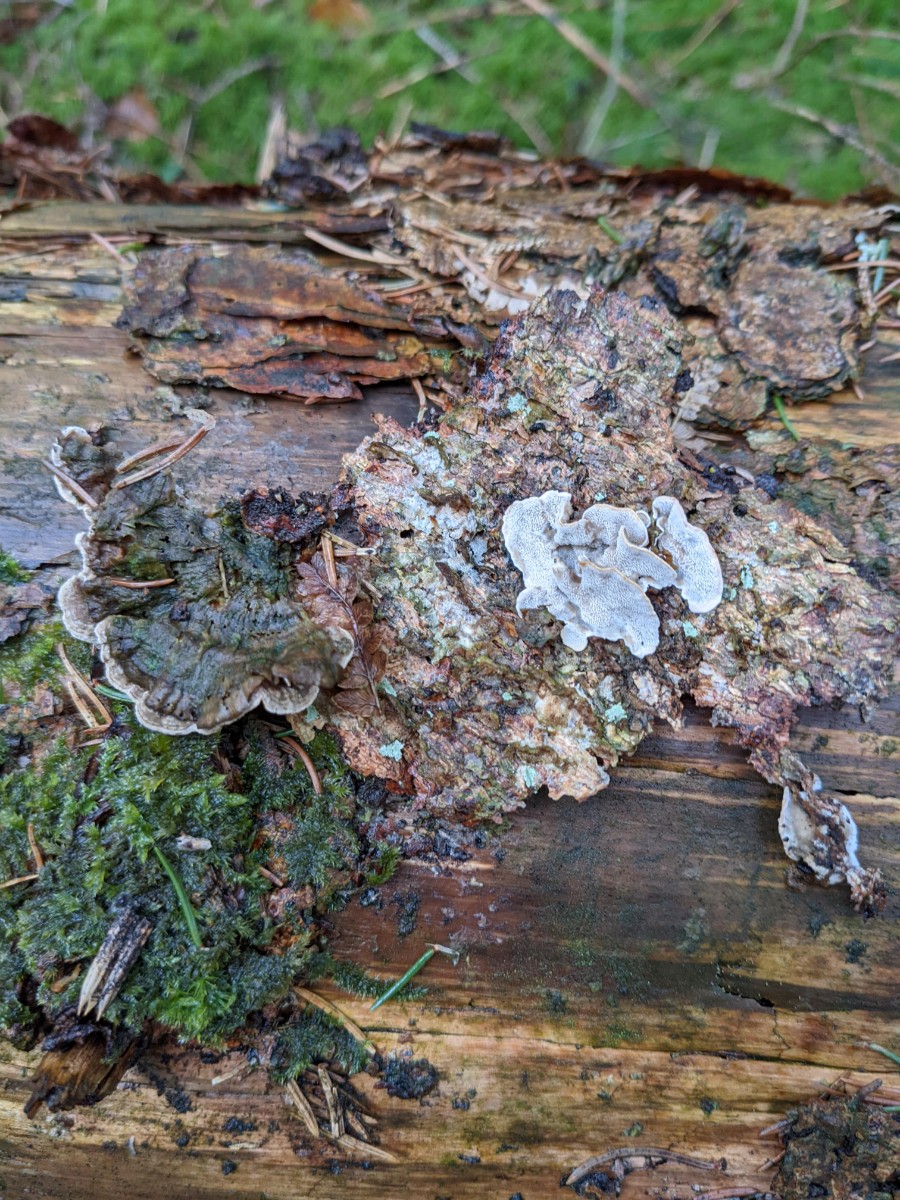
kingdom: Fungi
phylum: Basidiomycota
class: Agaricomycetes
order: Polyporales
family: Incrustoporiaceae
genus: Skeletocutis
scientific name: Skeletocutis carneogrisea
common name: rødgrå krystalporesvamp
